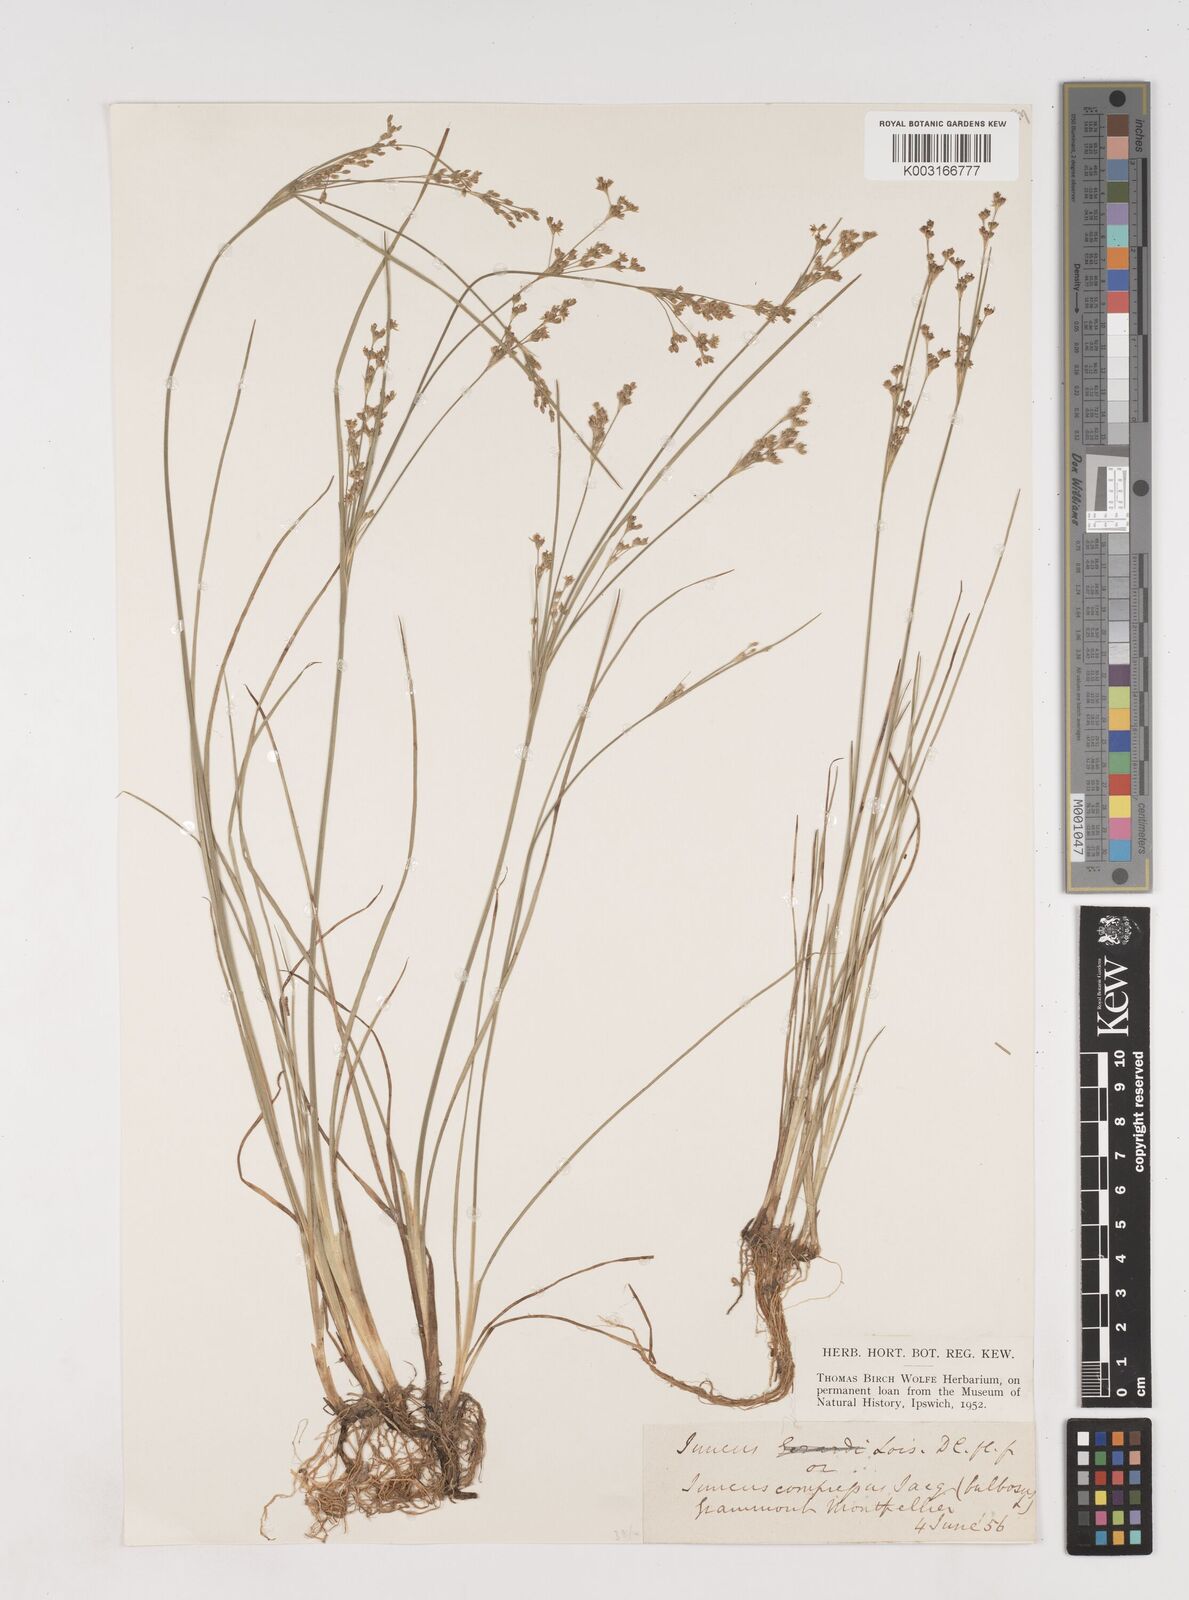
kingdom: Plantae
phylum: Tracheophyta
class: Liliopsida
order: Poales
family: Juncaceae
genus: Juncus
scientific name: Juncus compressus
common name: Round-fruited rush
